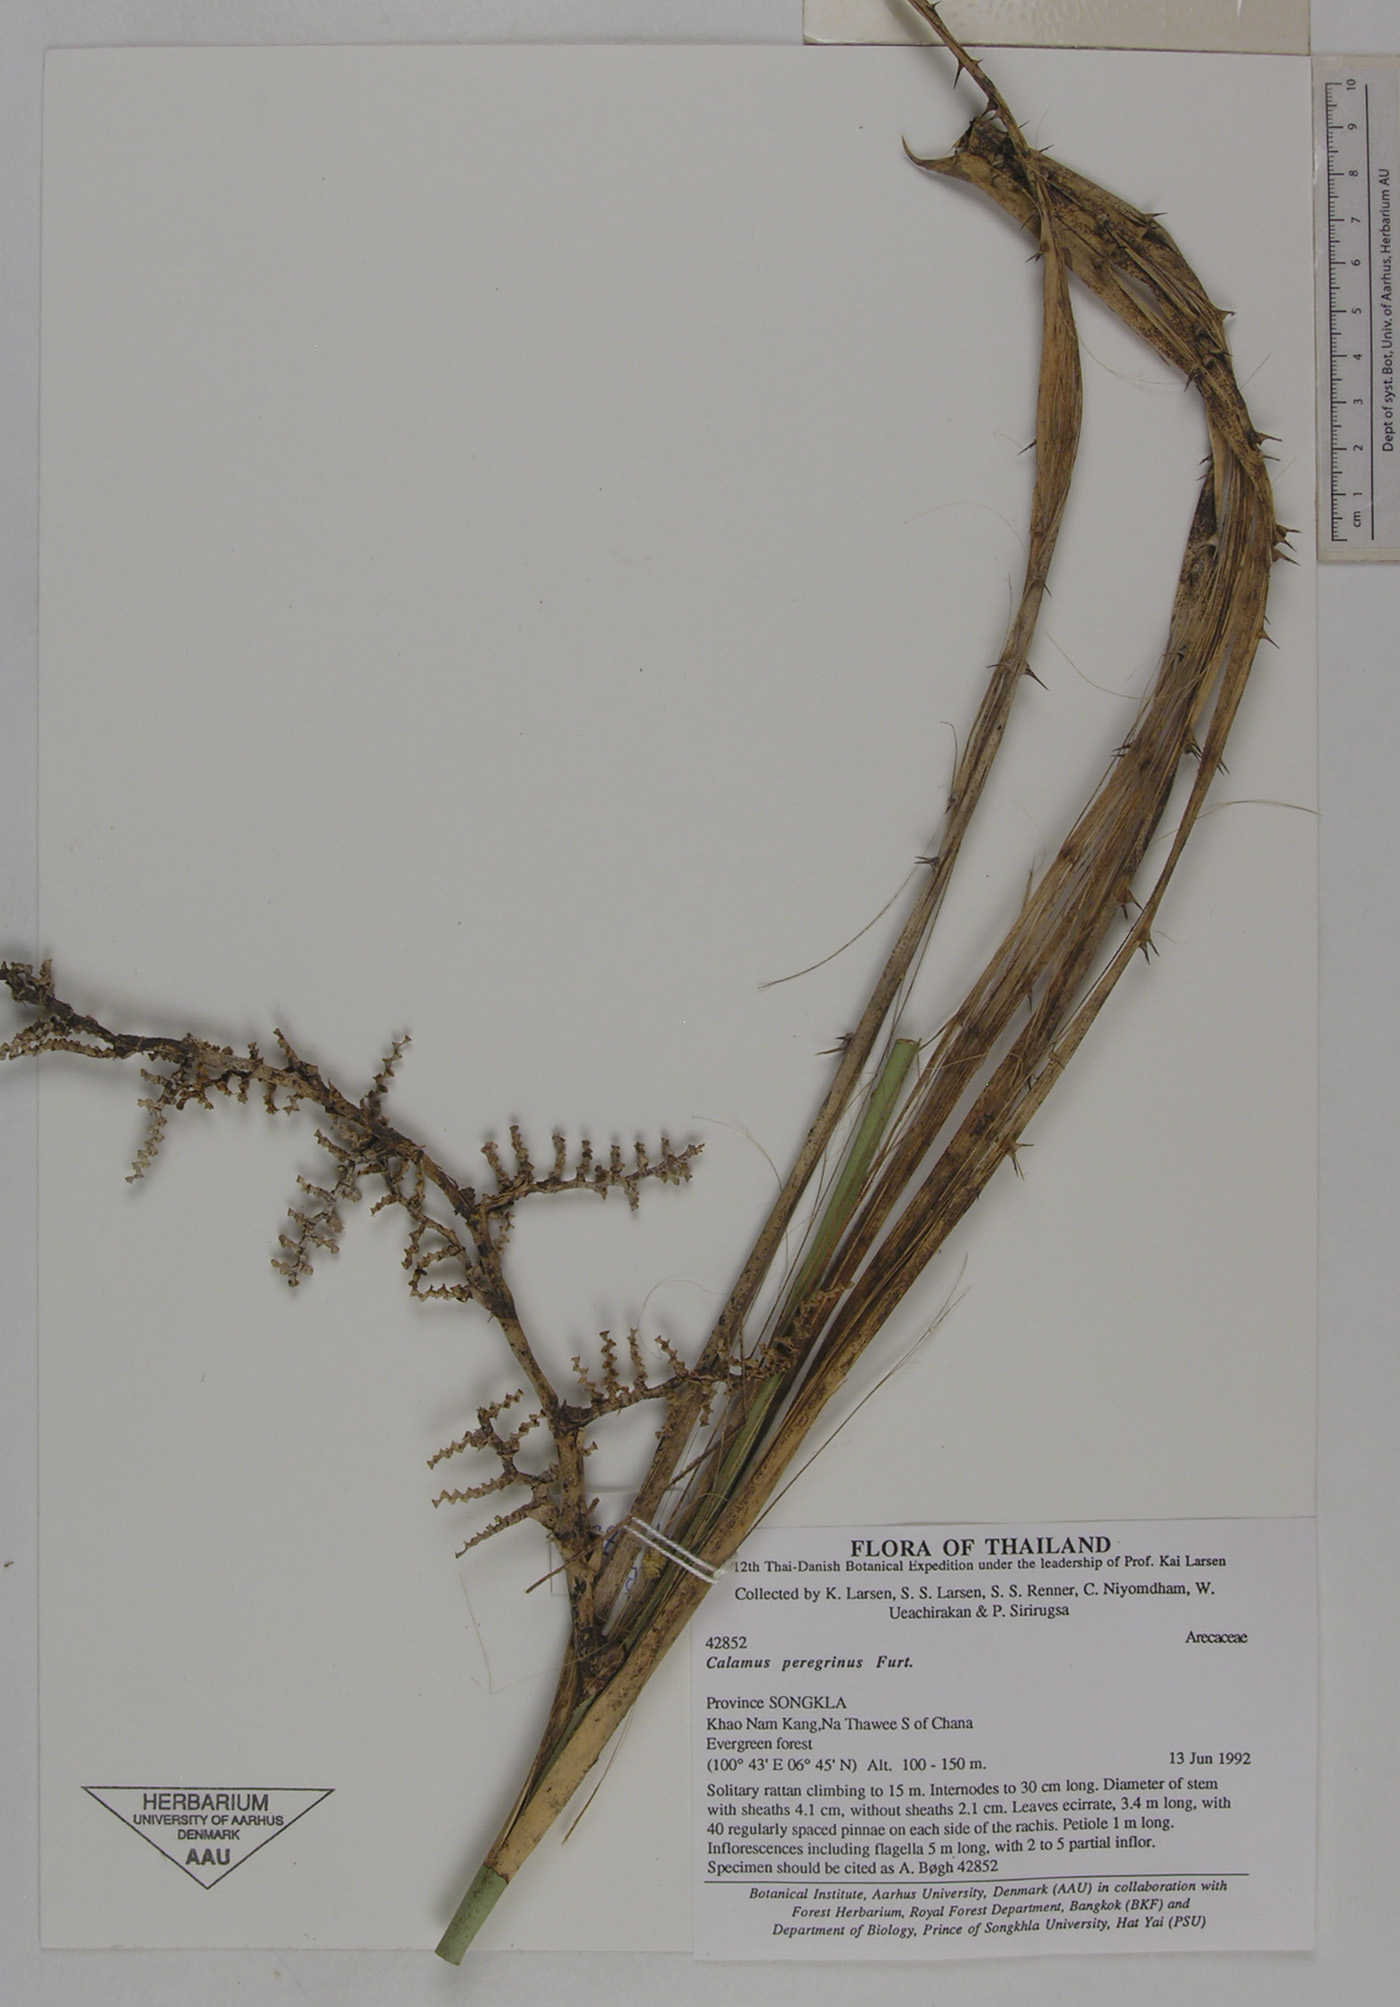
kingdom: Plantae
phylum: Tracheophyta
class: Liliopsida
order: Arecales
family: Arecaceae
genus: Calamus
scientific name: Calamus peregrinus
